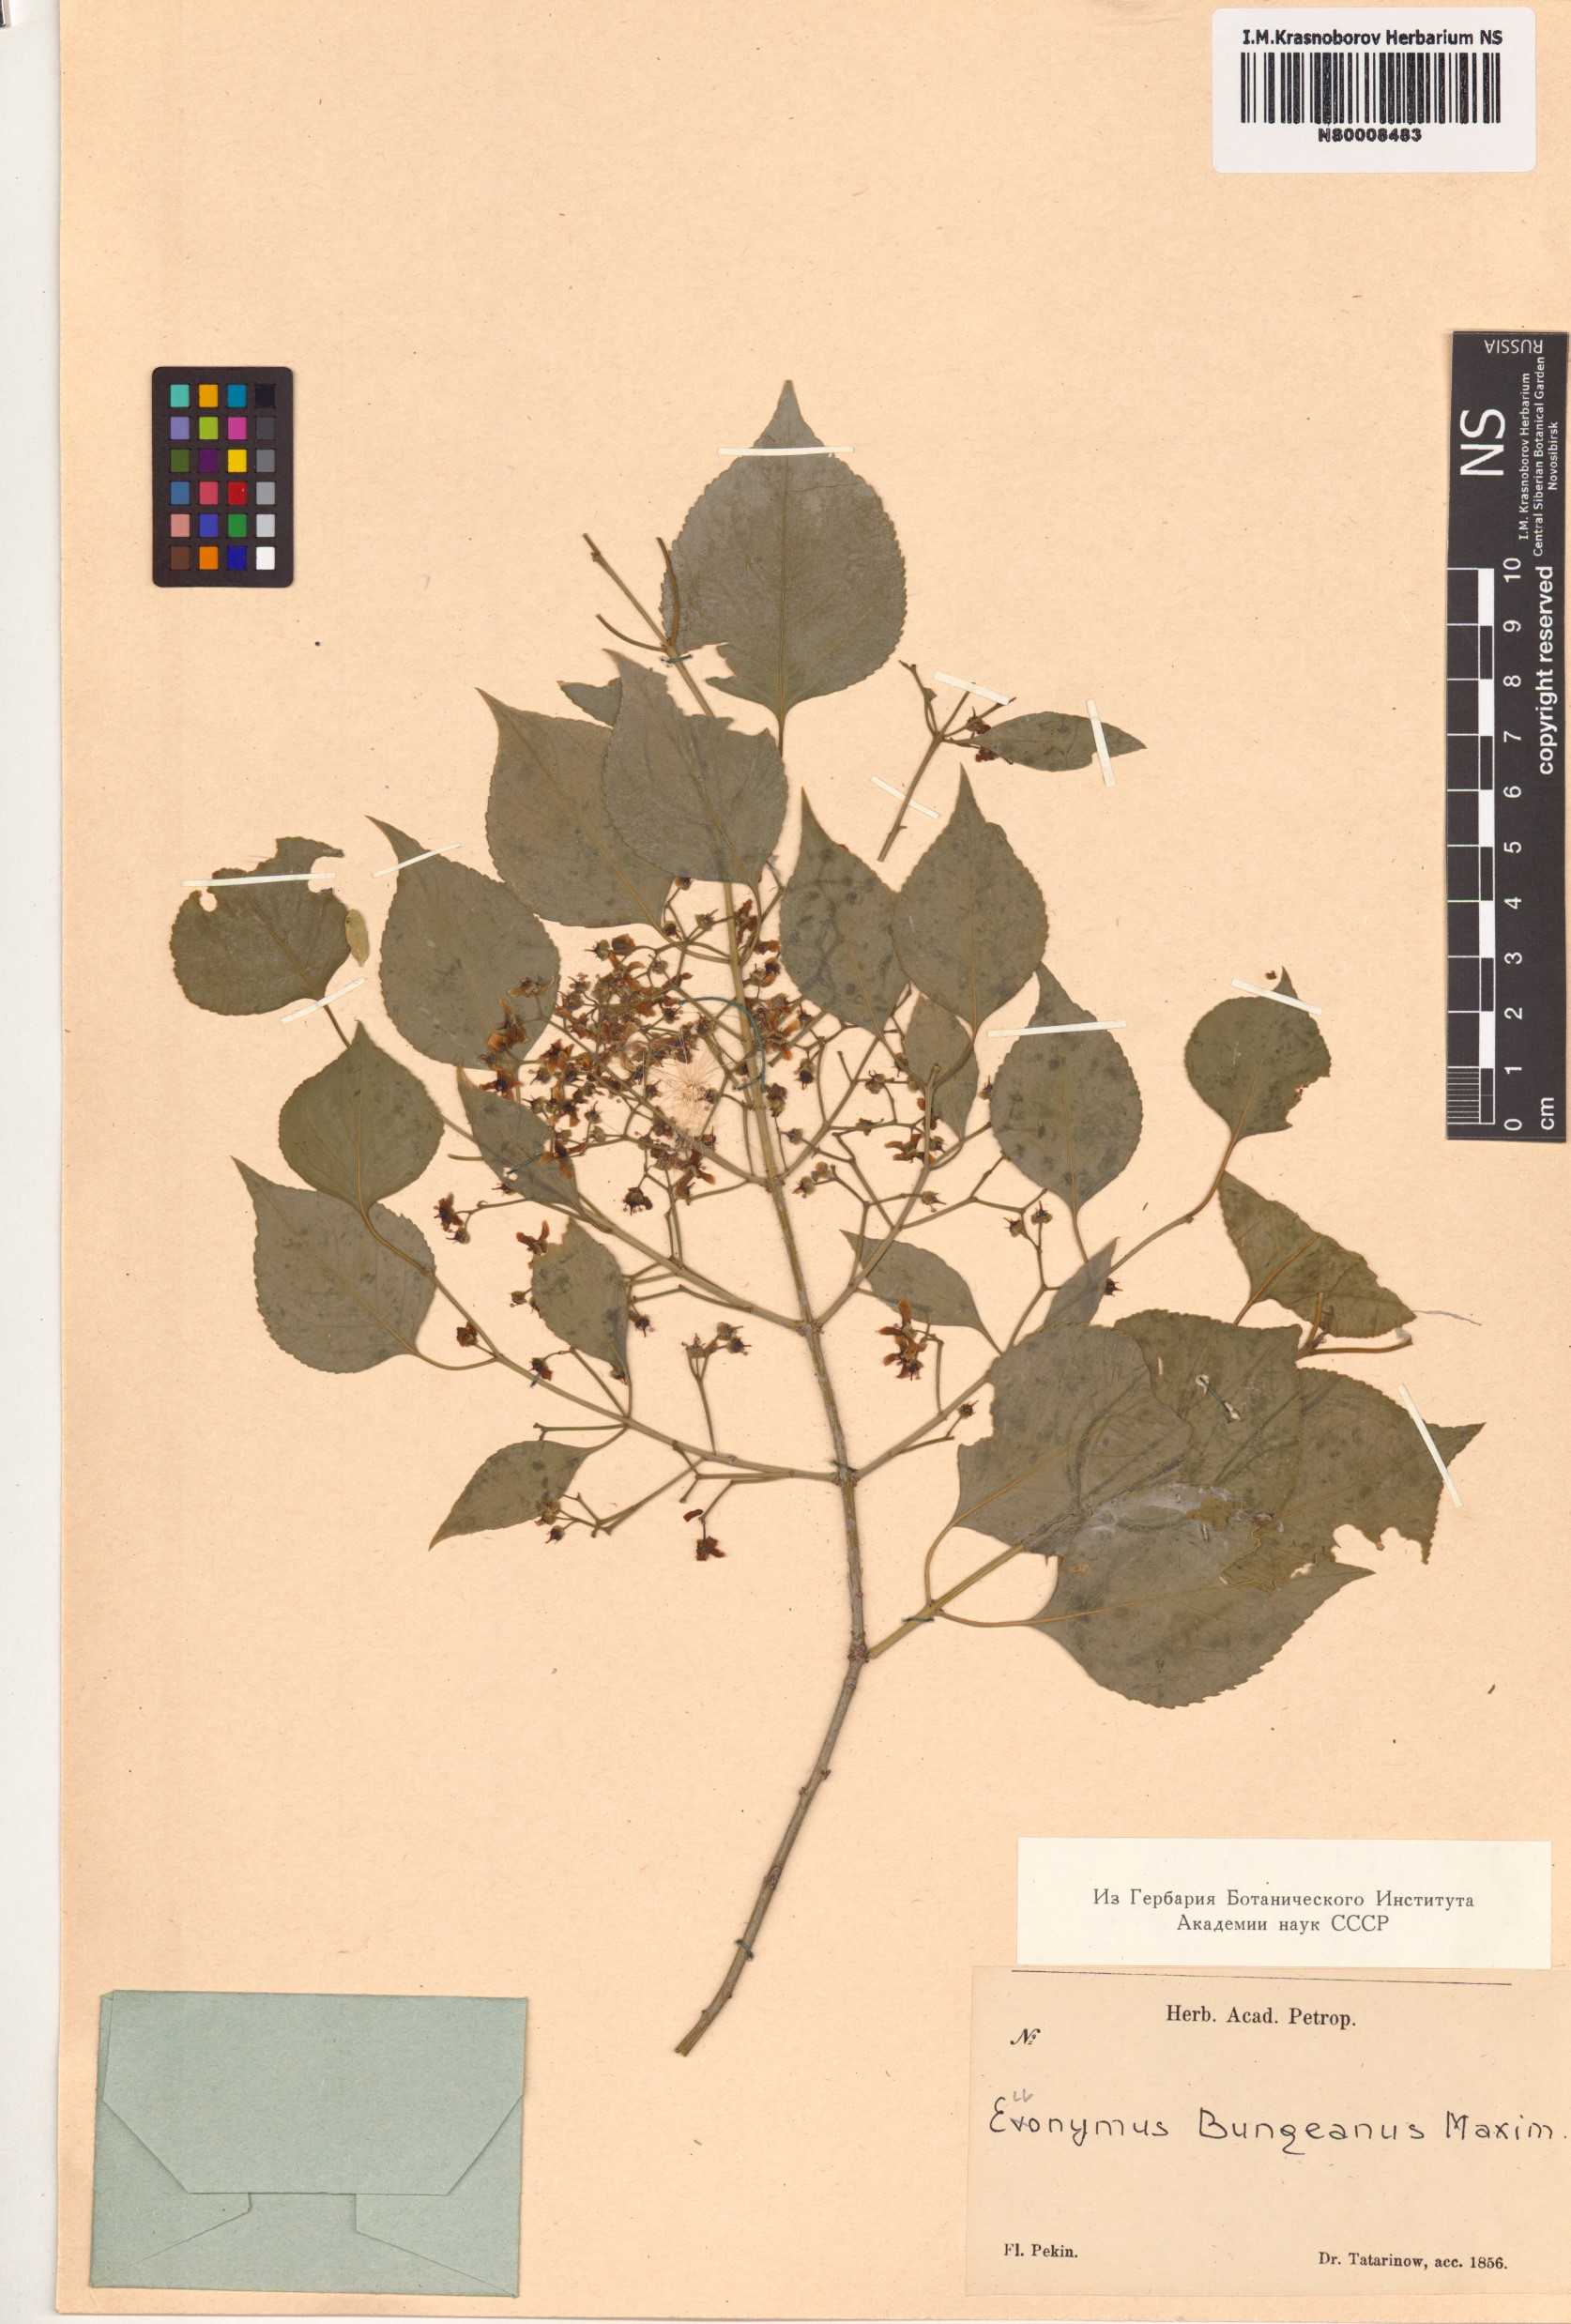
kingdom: Plantae
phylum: Tracheophyta
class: Magnoliopsida
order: Celastrales
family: Celastraceae
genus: Euonymus
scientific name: Euonymus maackii
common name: Hamilton's spindletree
